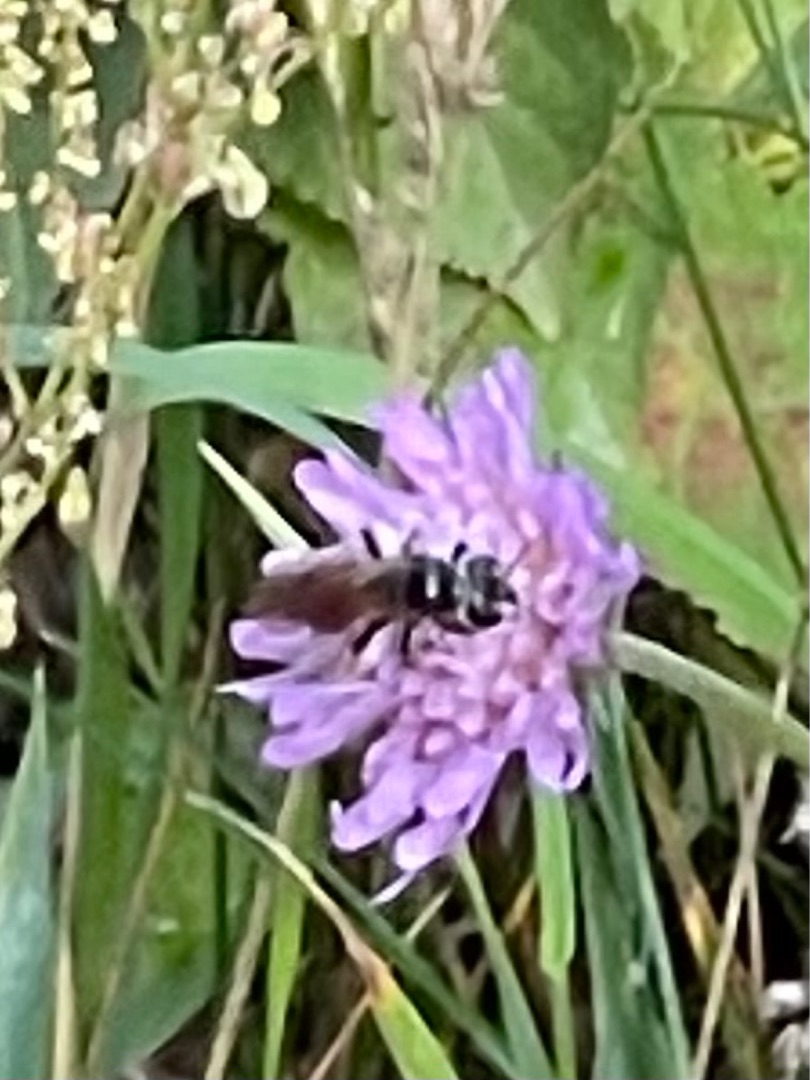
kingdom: Animalia
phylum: Arthropoda
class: Insecta
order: Hymenoptera
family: Andrenidae
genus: Andrena
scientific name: Andrena hattorfiana
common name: Blåhatjordbi
